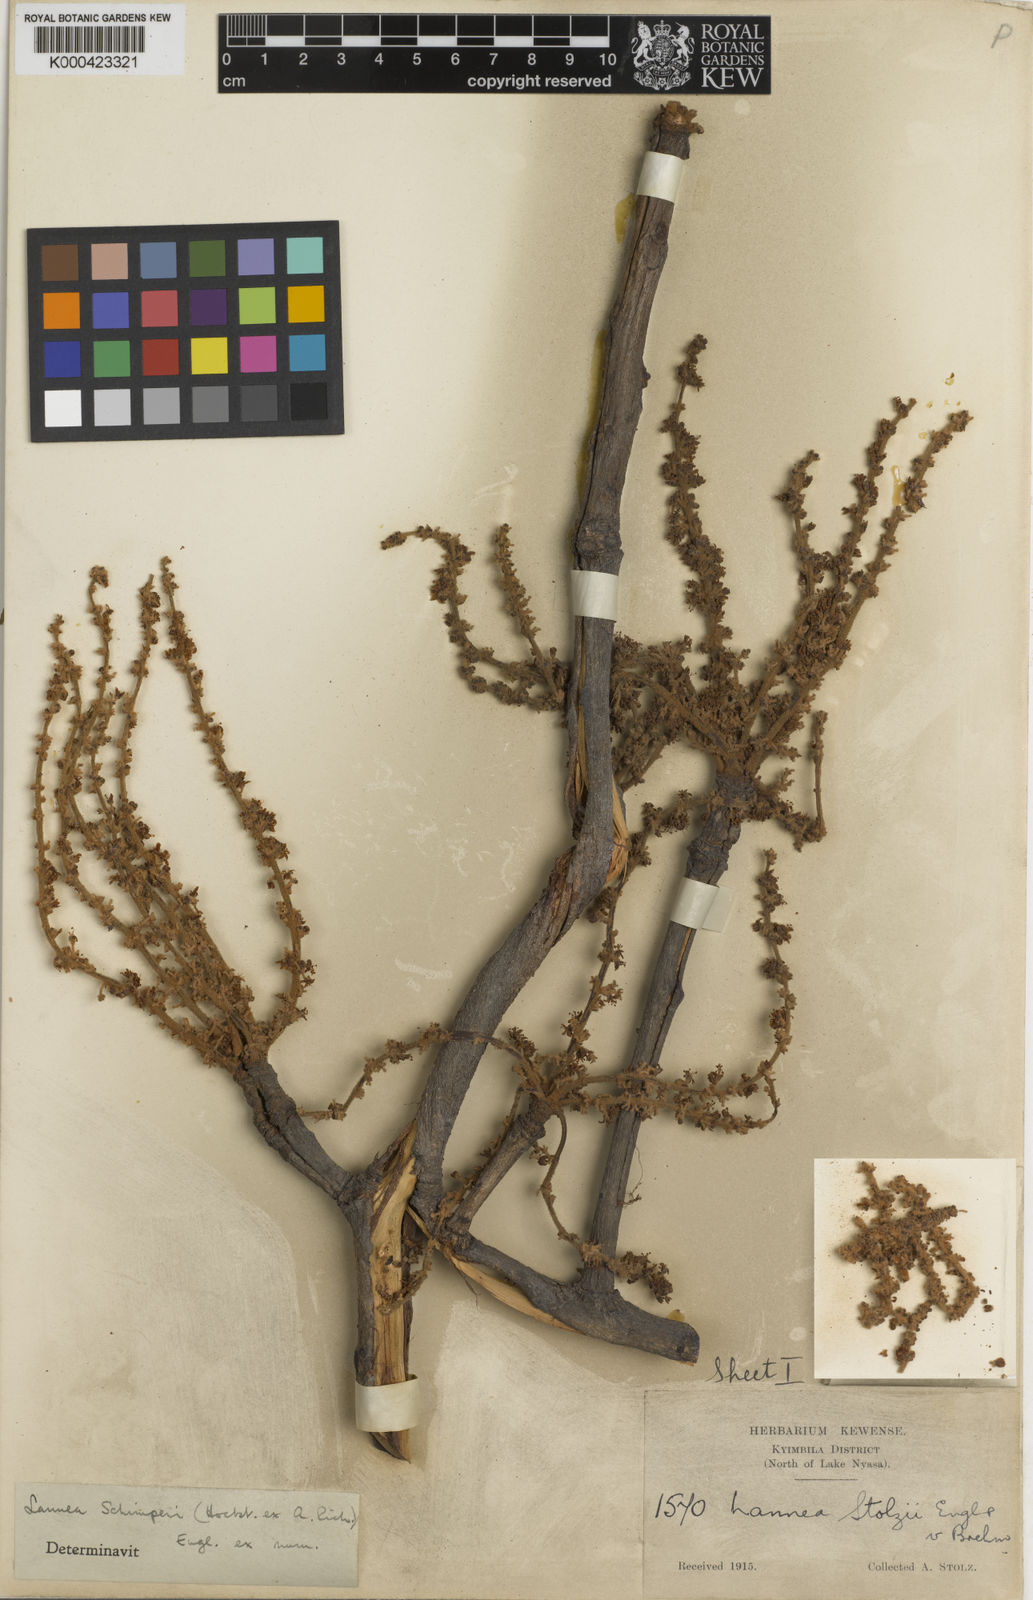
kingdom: Plantae
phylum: Tracheophyta
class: Magnoliopsida
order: Sapindales
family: Anacardiaceae
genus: Lannea
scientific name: Lannea schimperi
